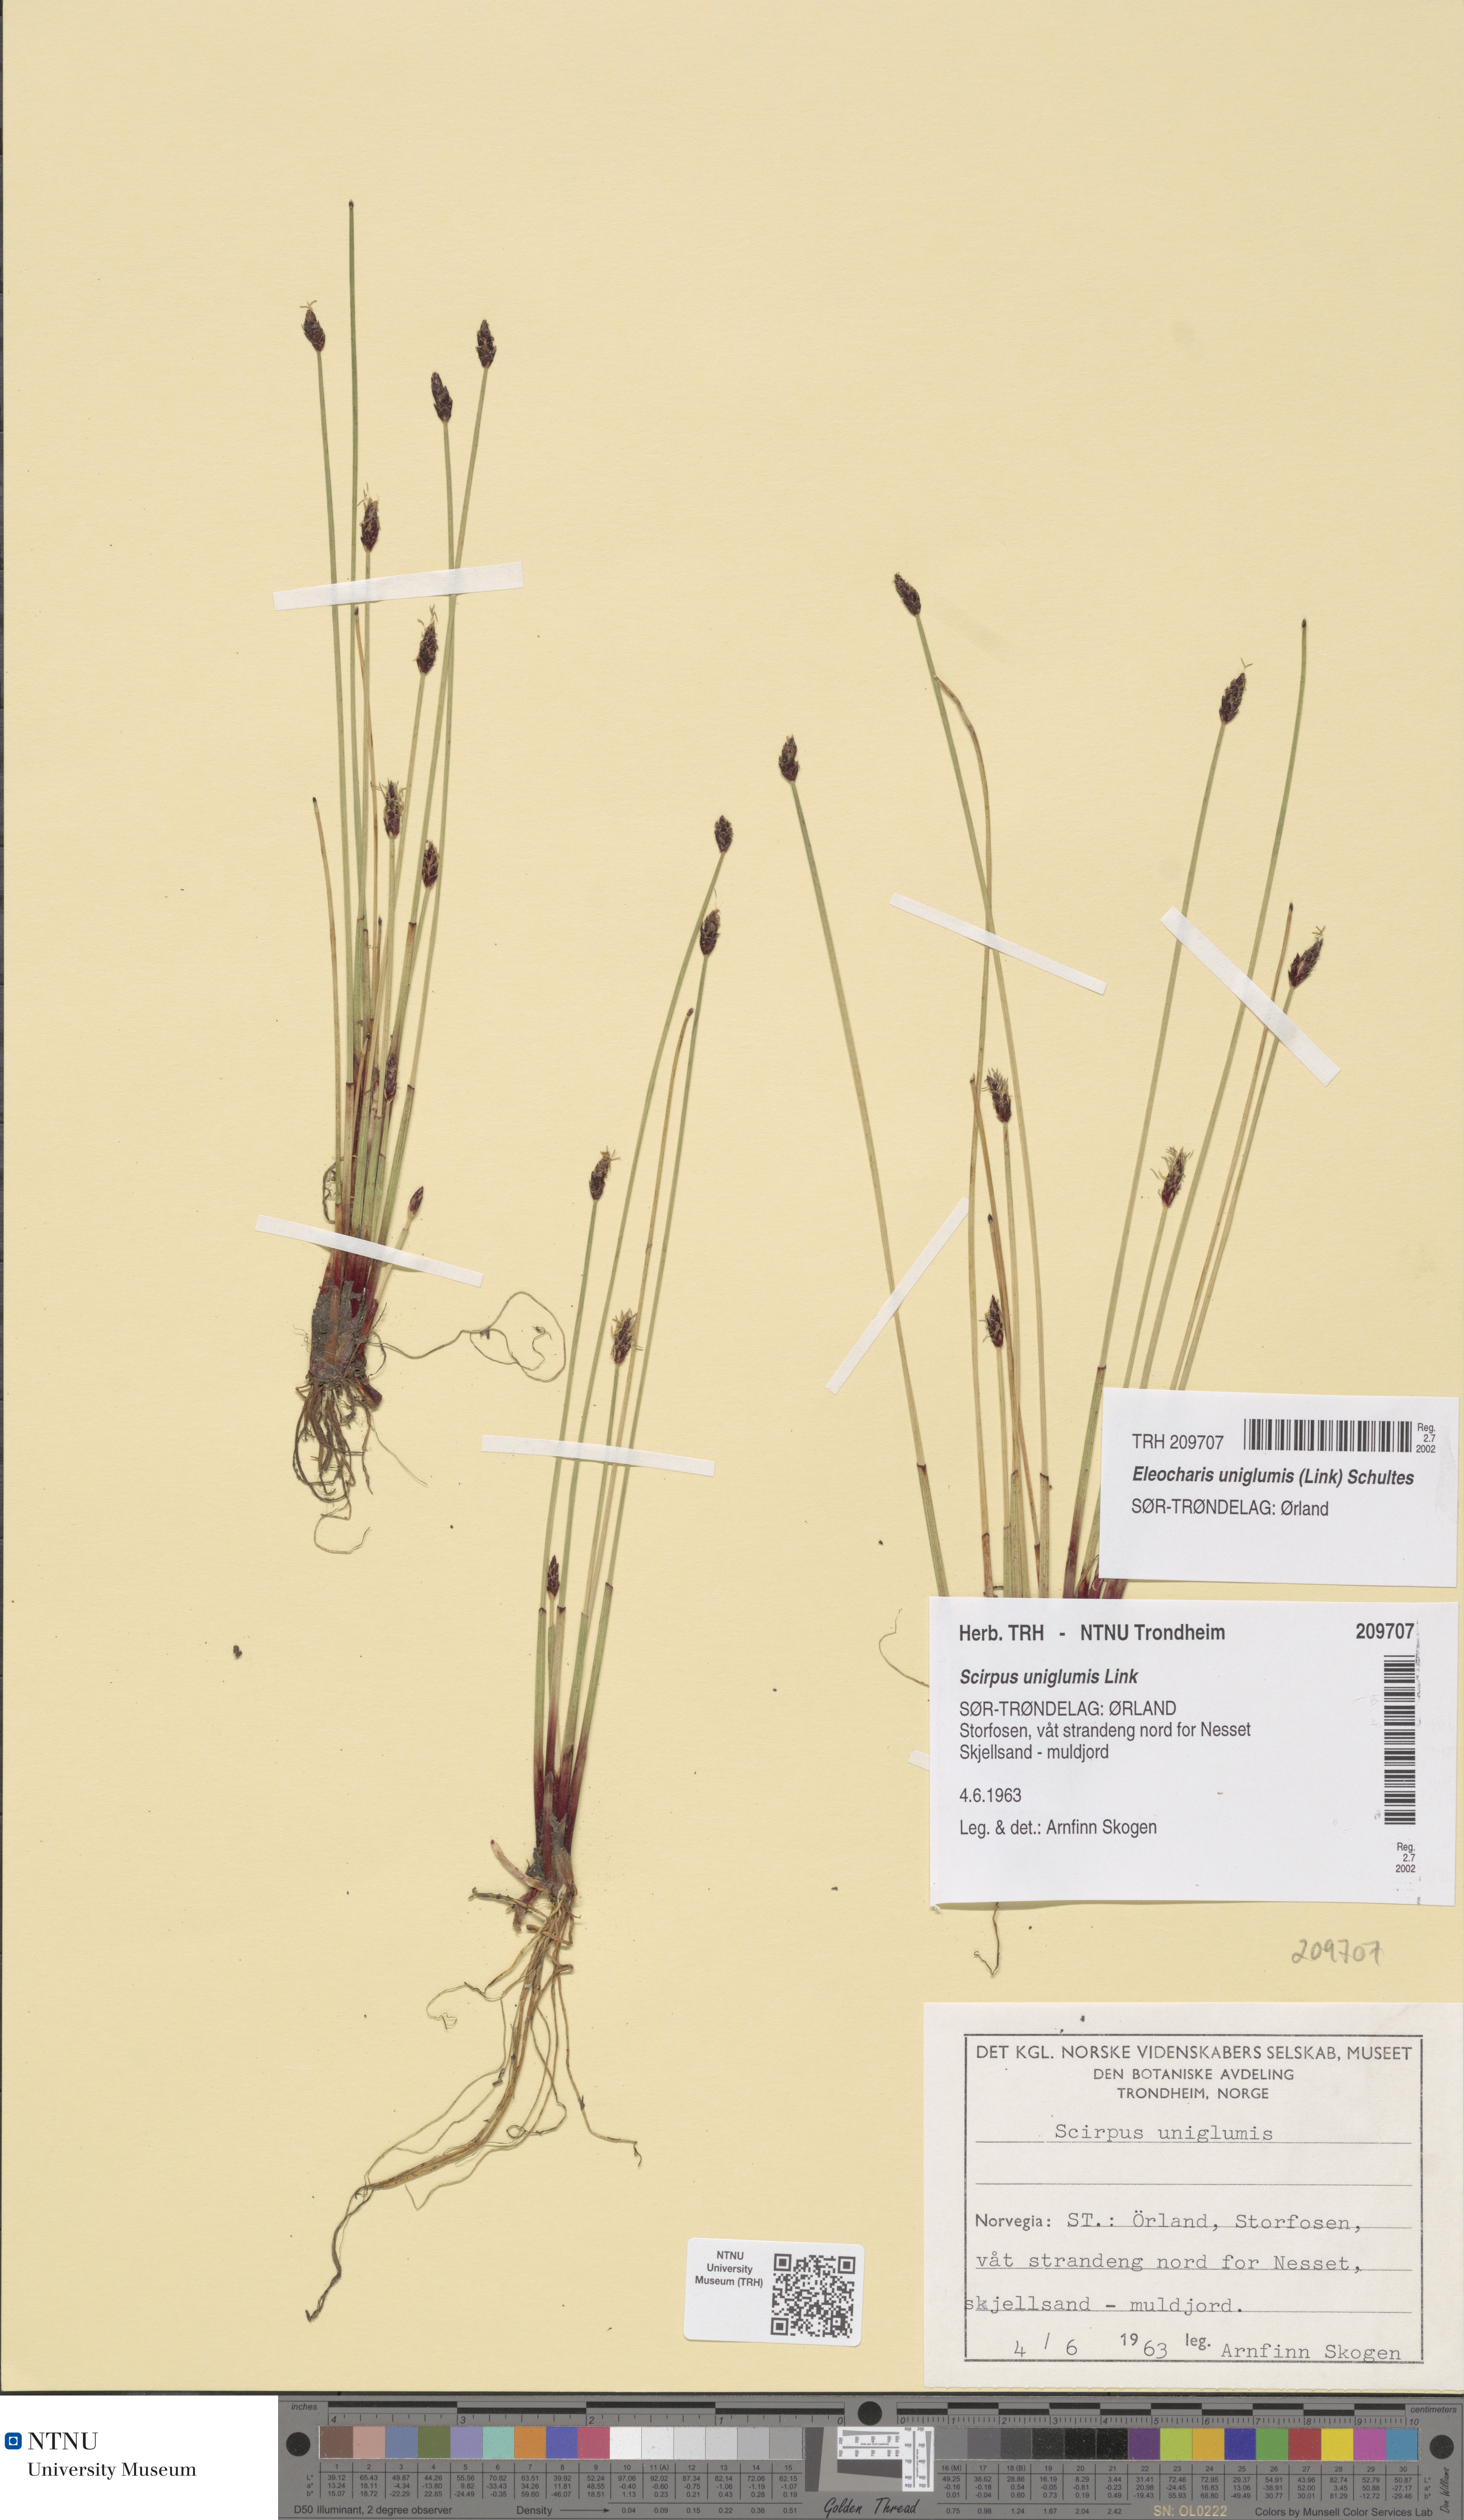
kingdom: Plantae
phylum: Tracheophyta
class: Liliopsida
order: Poales
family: Cyperaceae
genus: Eleocharis
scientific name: Eleocharis uniglumis
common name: Slender spike-rush
